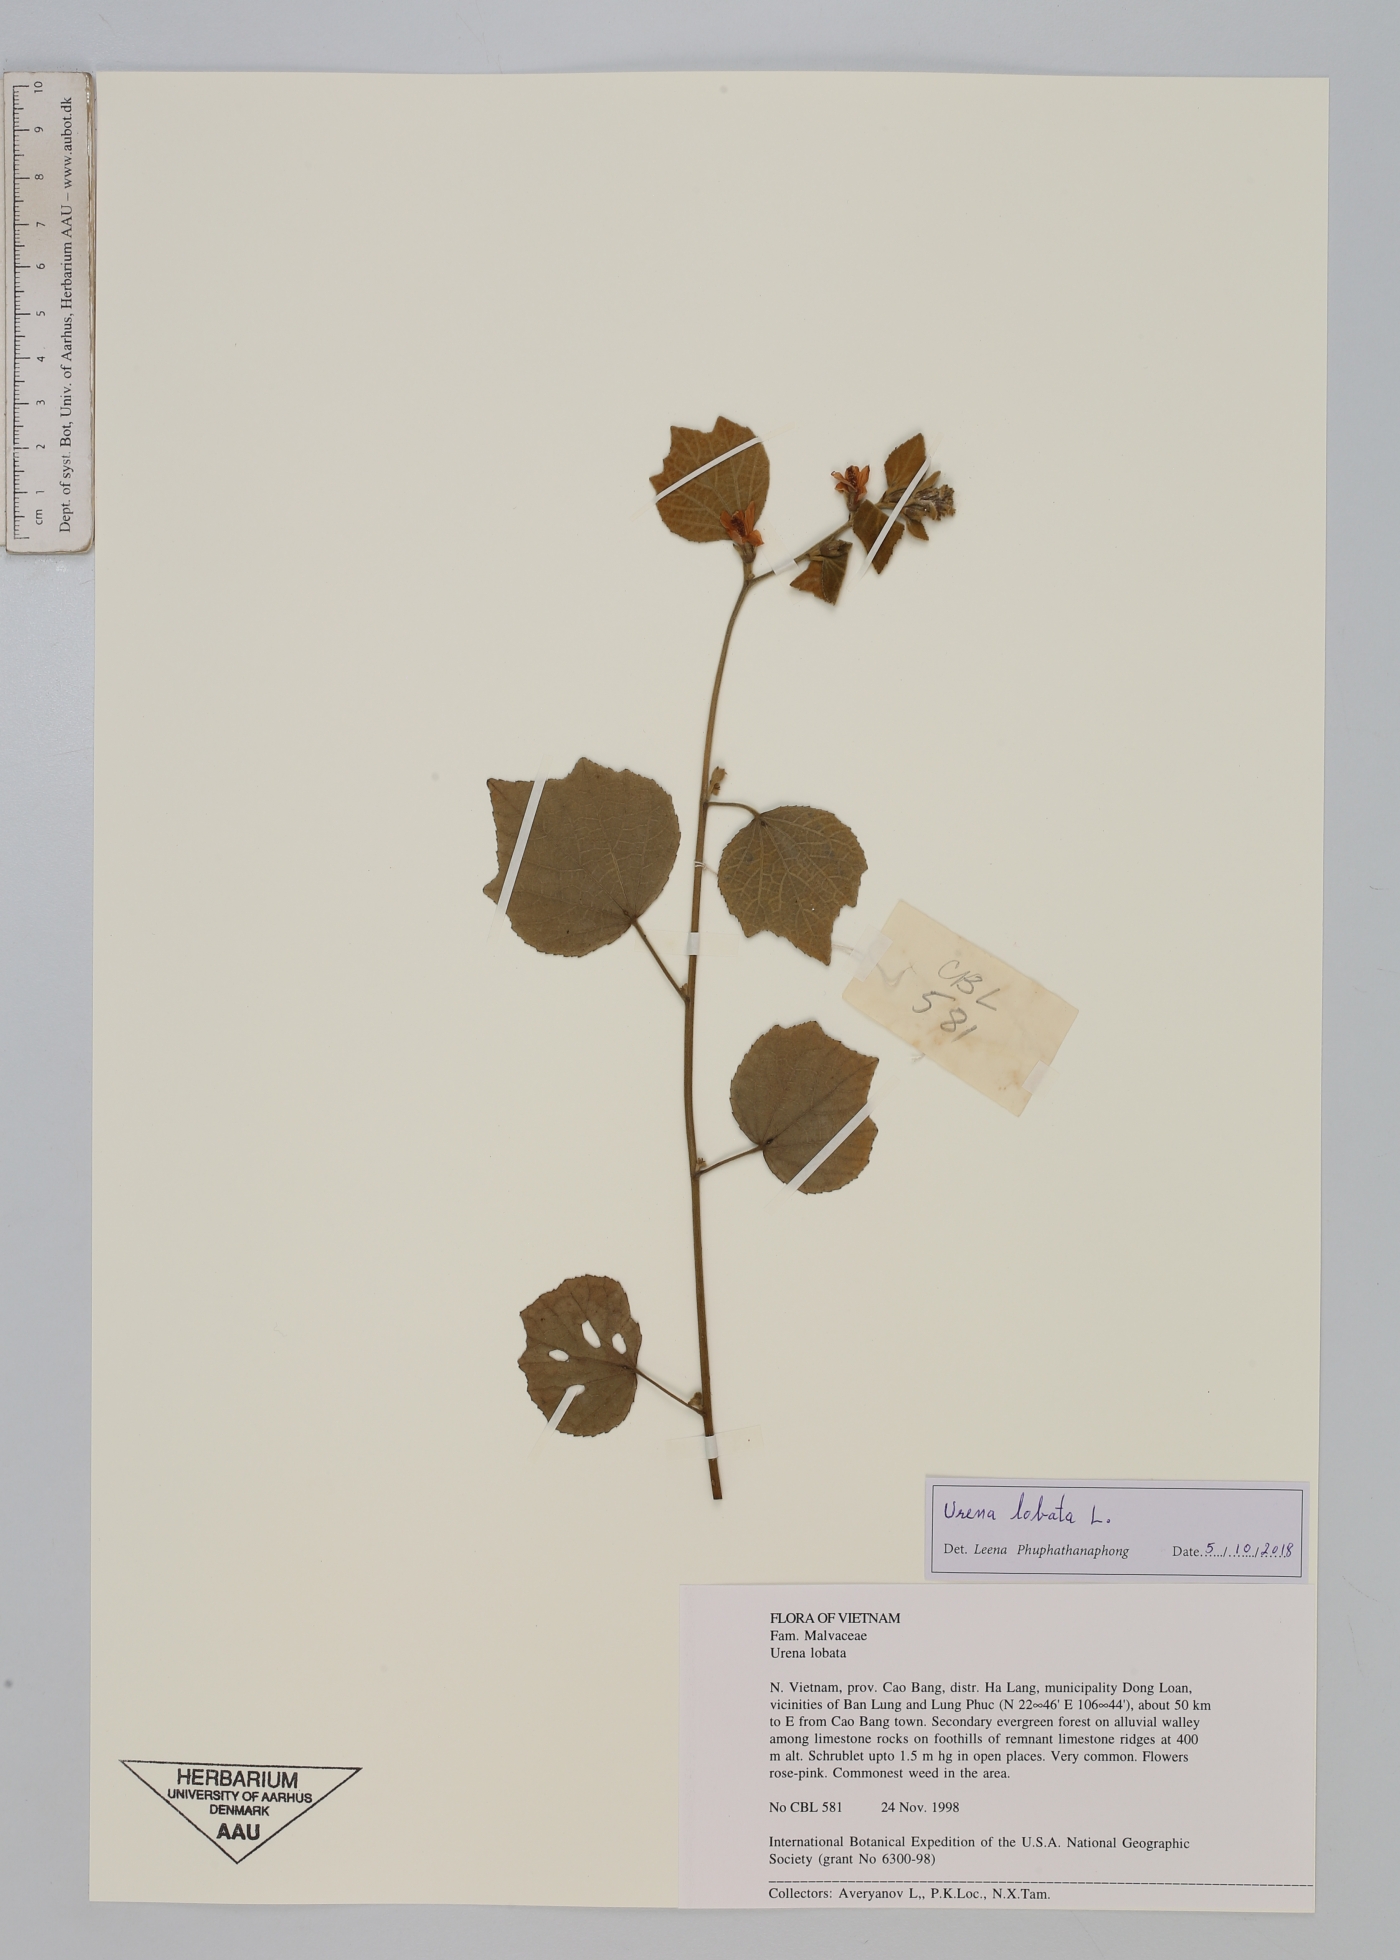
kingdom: Plantae
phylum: Tracheophyta
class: Magnoliopsida
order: Malvales
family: Malvaceae
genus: Urena
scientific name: Urena lobata
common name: Caesarweed
